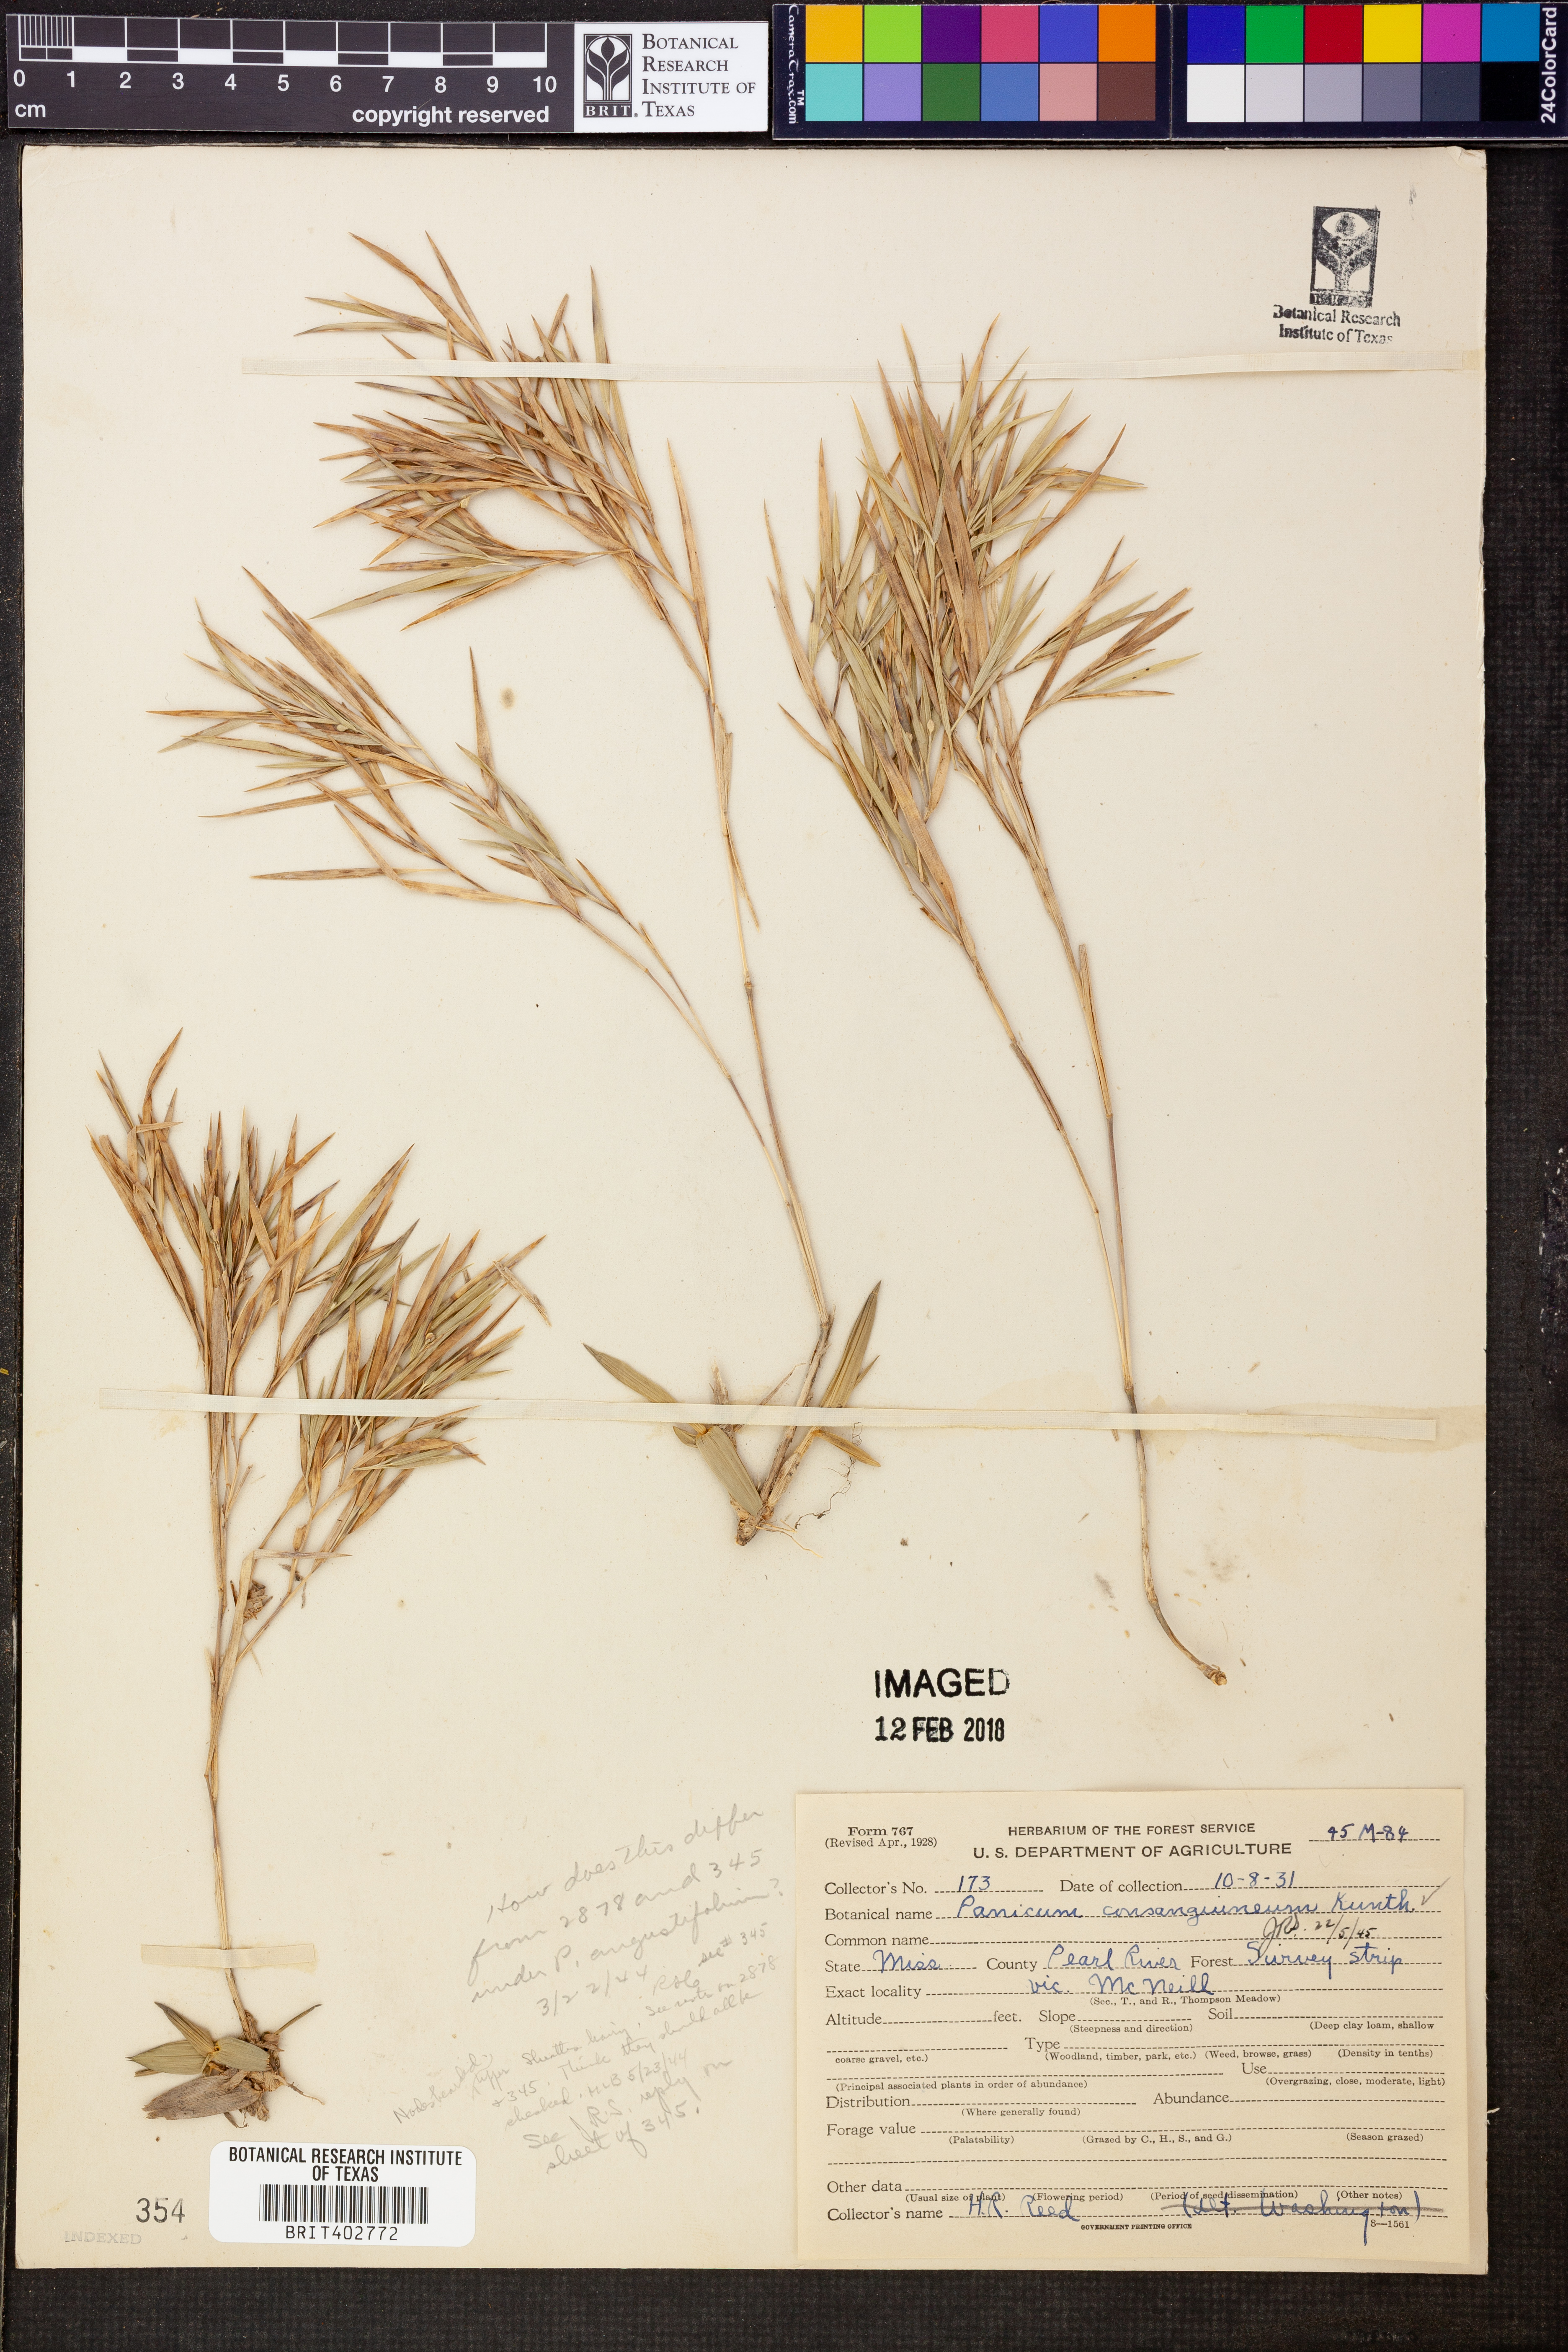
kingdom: Plantae
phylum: Tracheophyta
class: Liliopsida
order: Poales
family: Poaceae
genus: Dichanthelium
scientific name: Dichanthelium consanguineum
